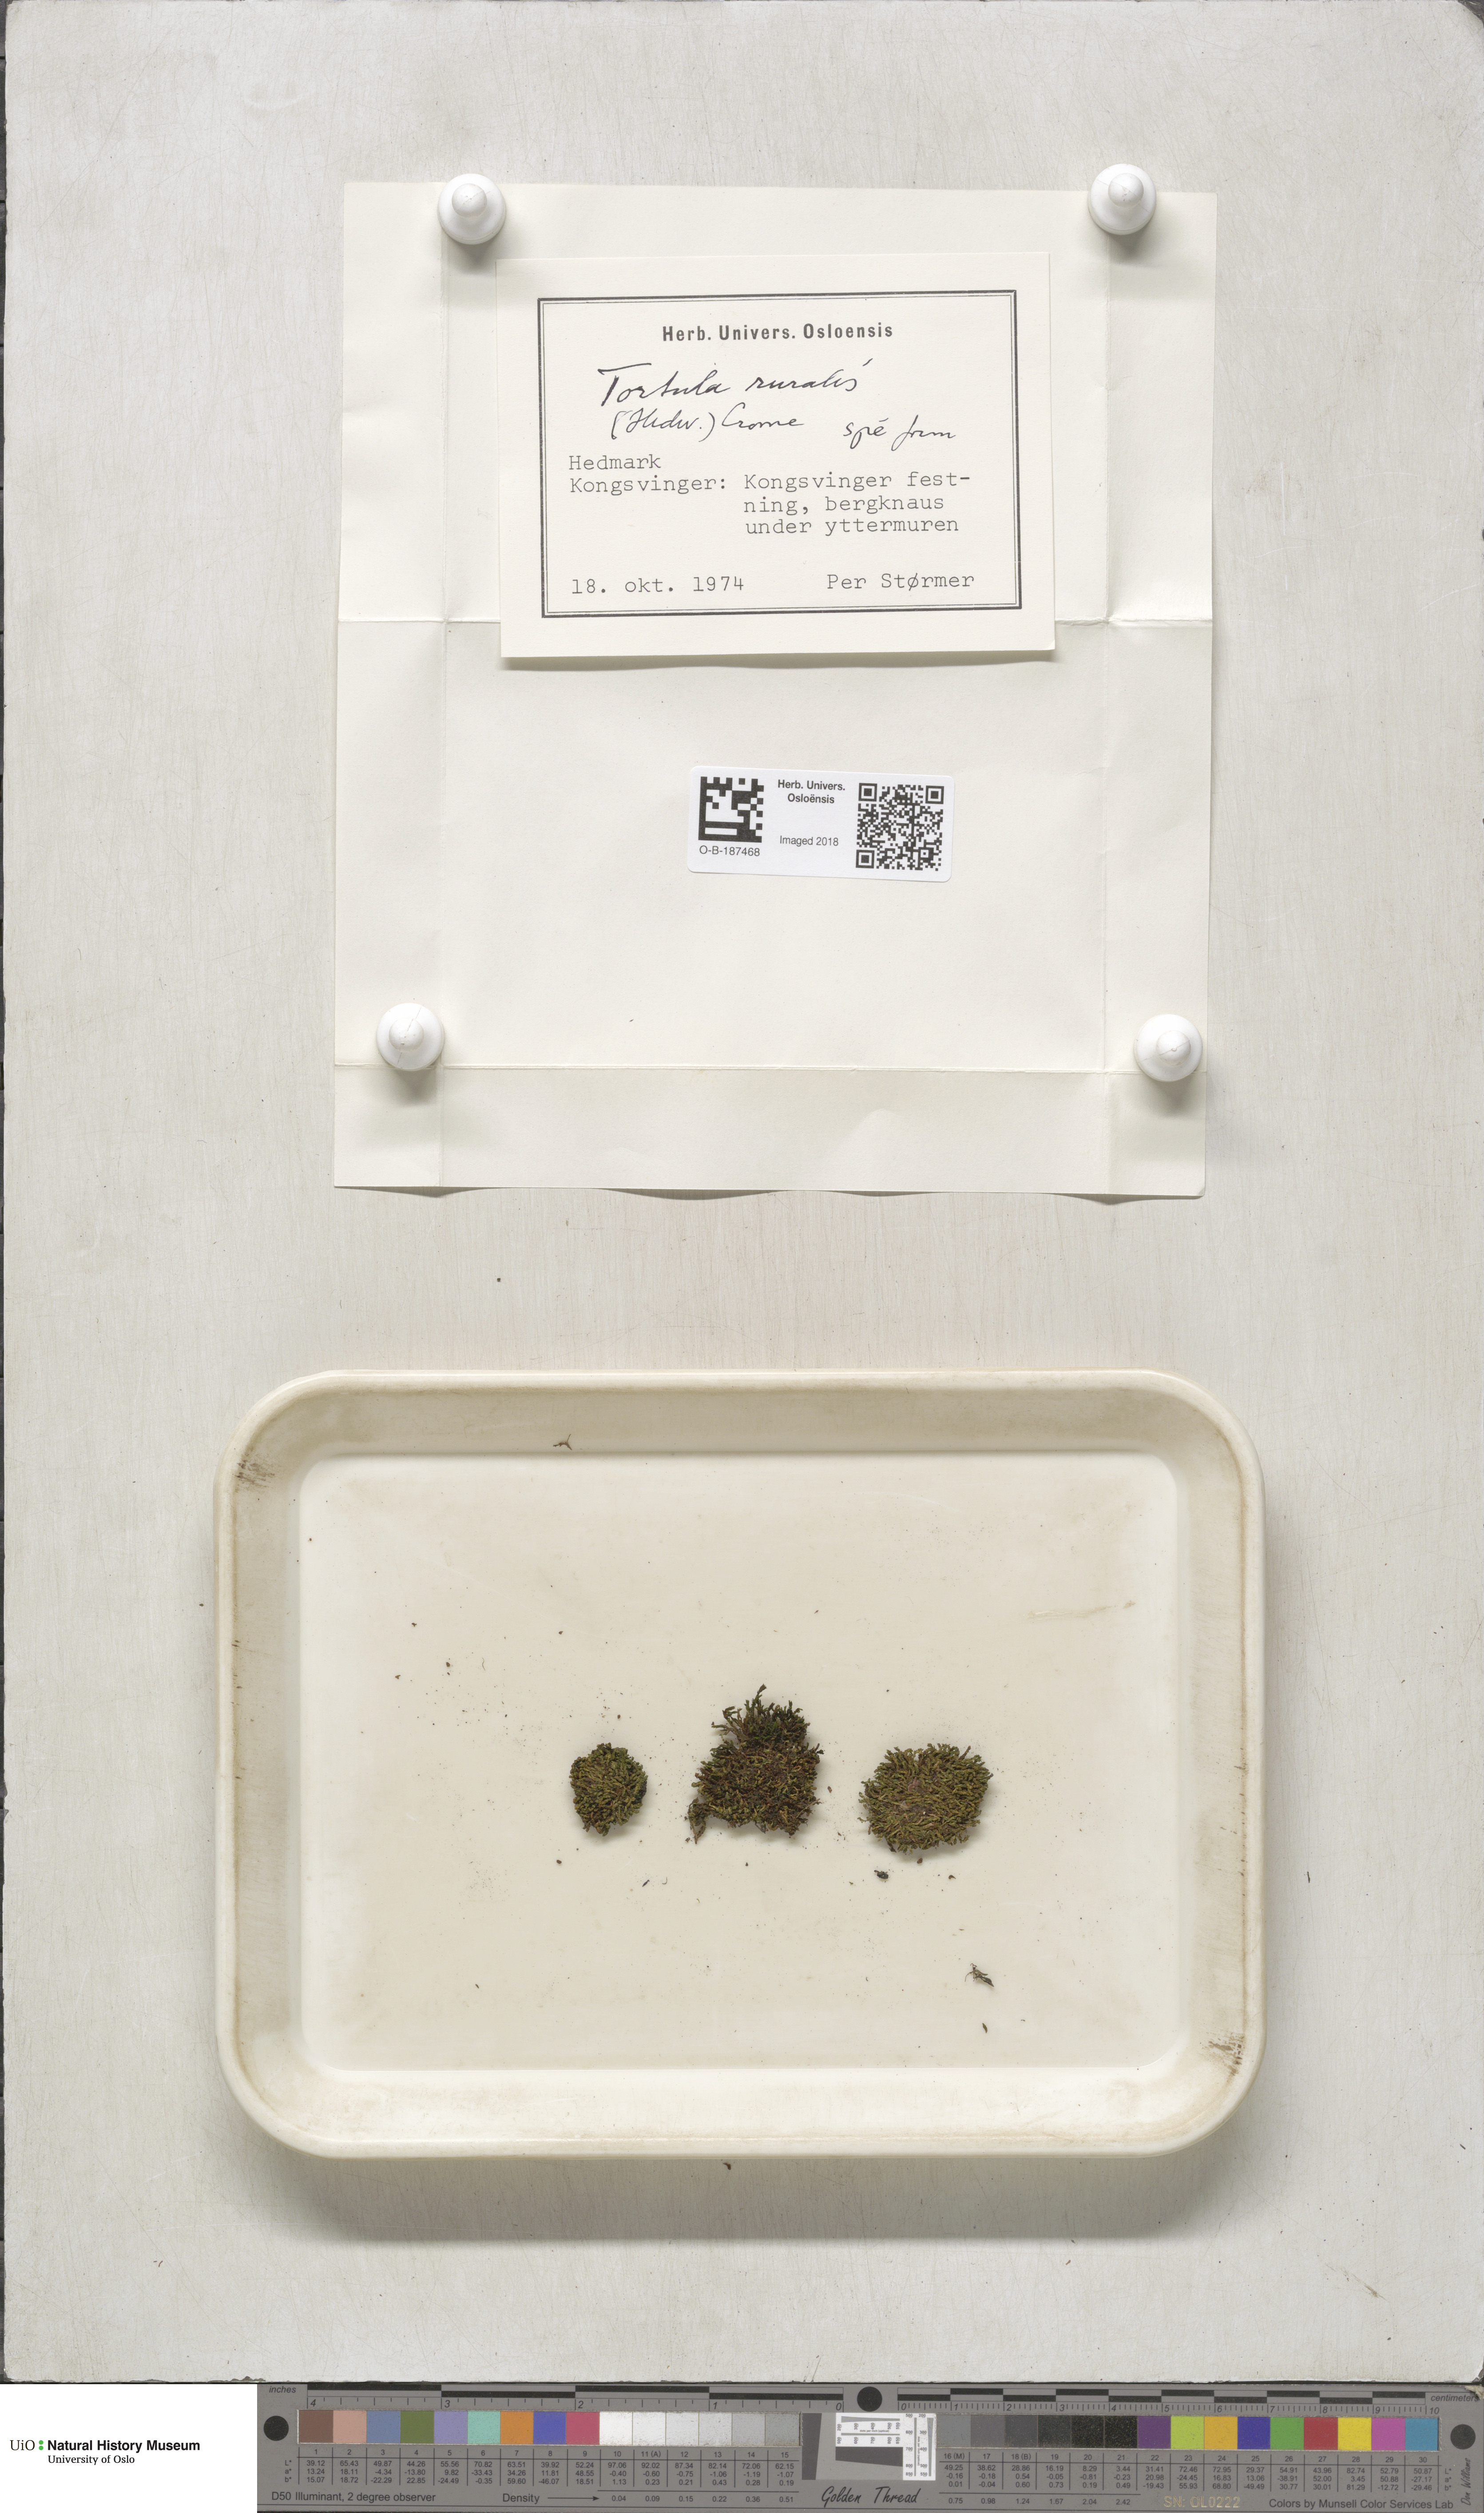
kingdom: Plantae
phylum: Bryophyta
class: Bryopsida
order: Pottiales
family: Pottiaceae
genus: Syntrichia
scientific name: Syntrichia ruralis
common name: Sidewalk screw moss
